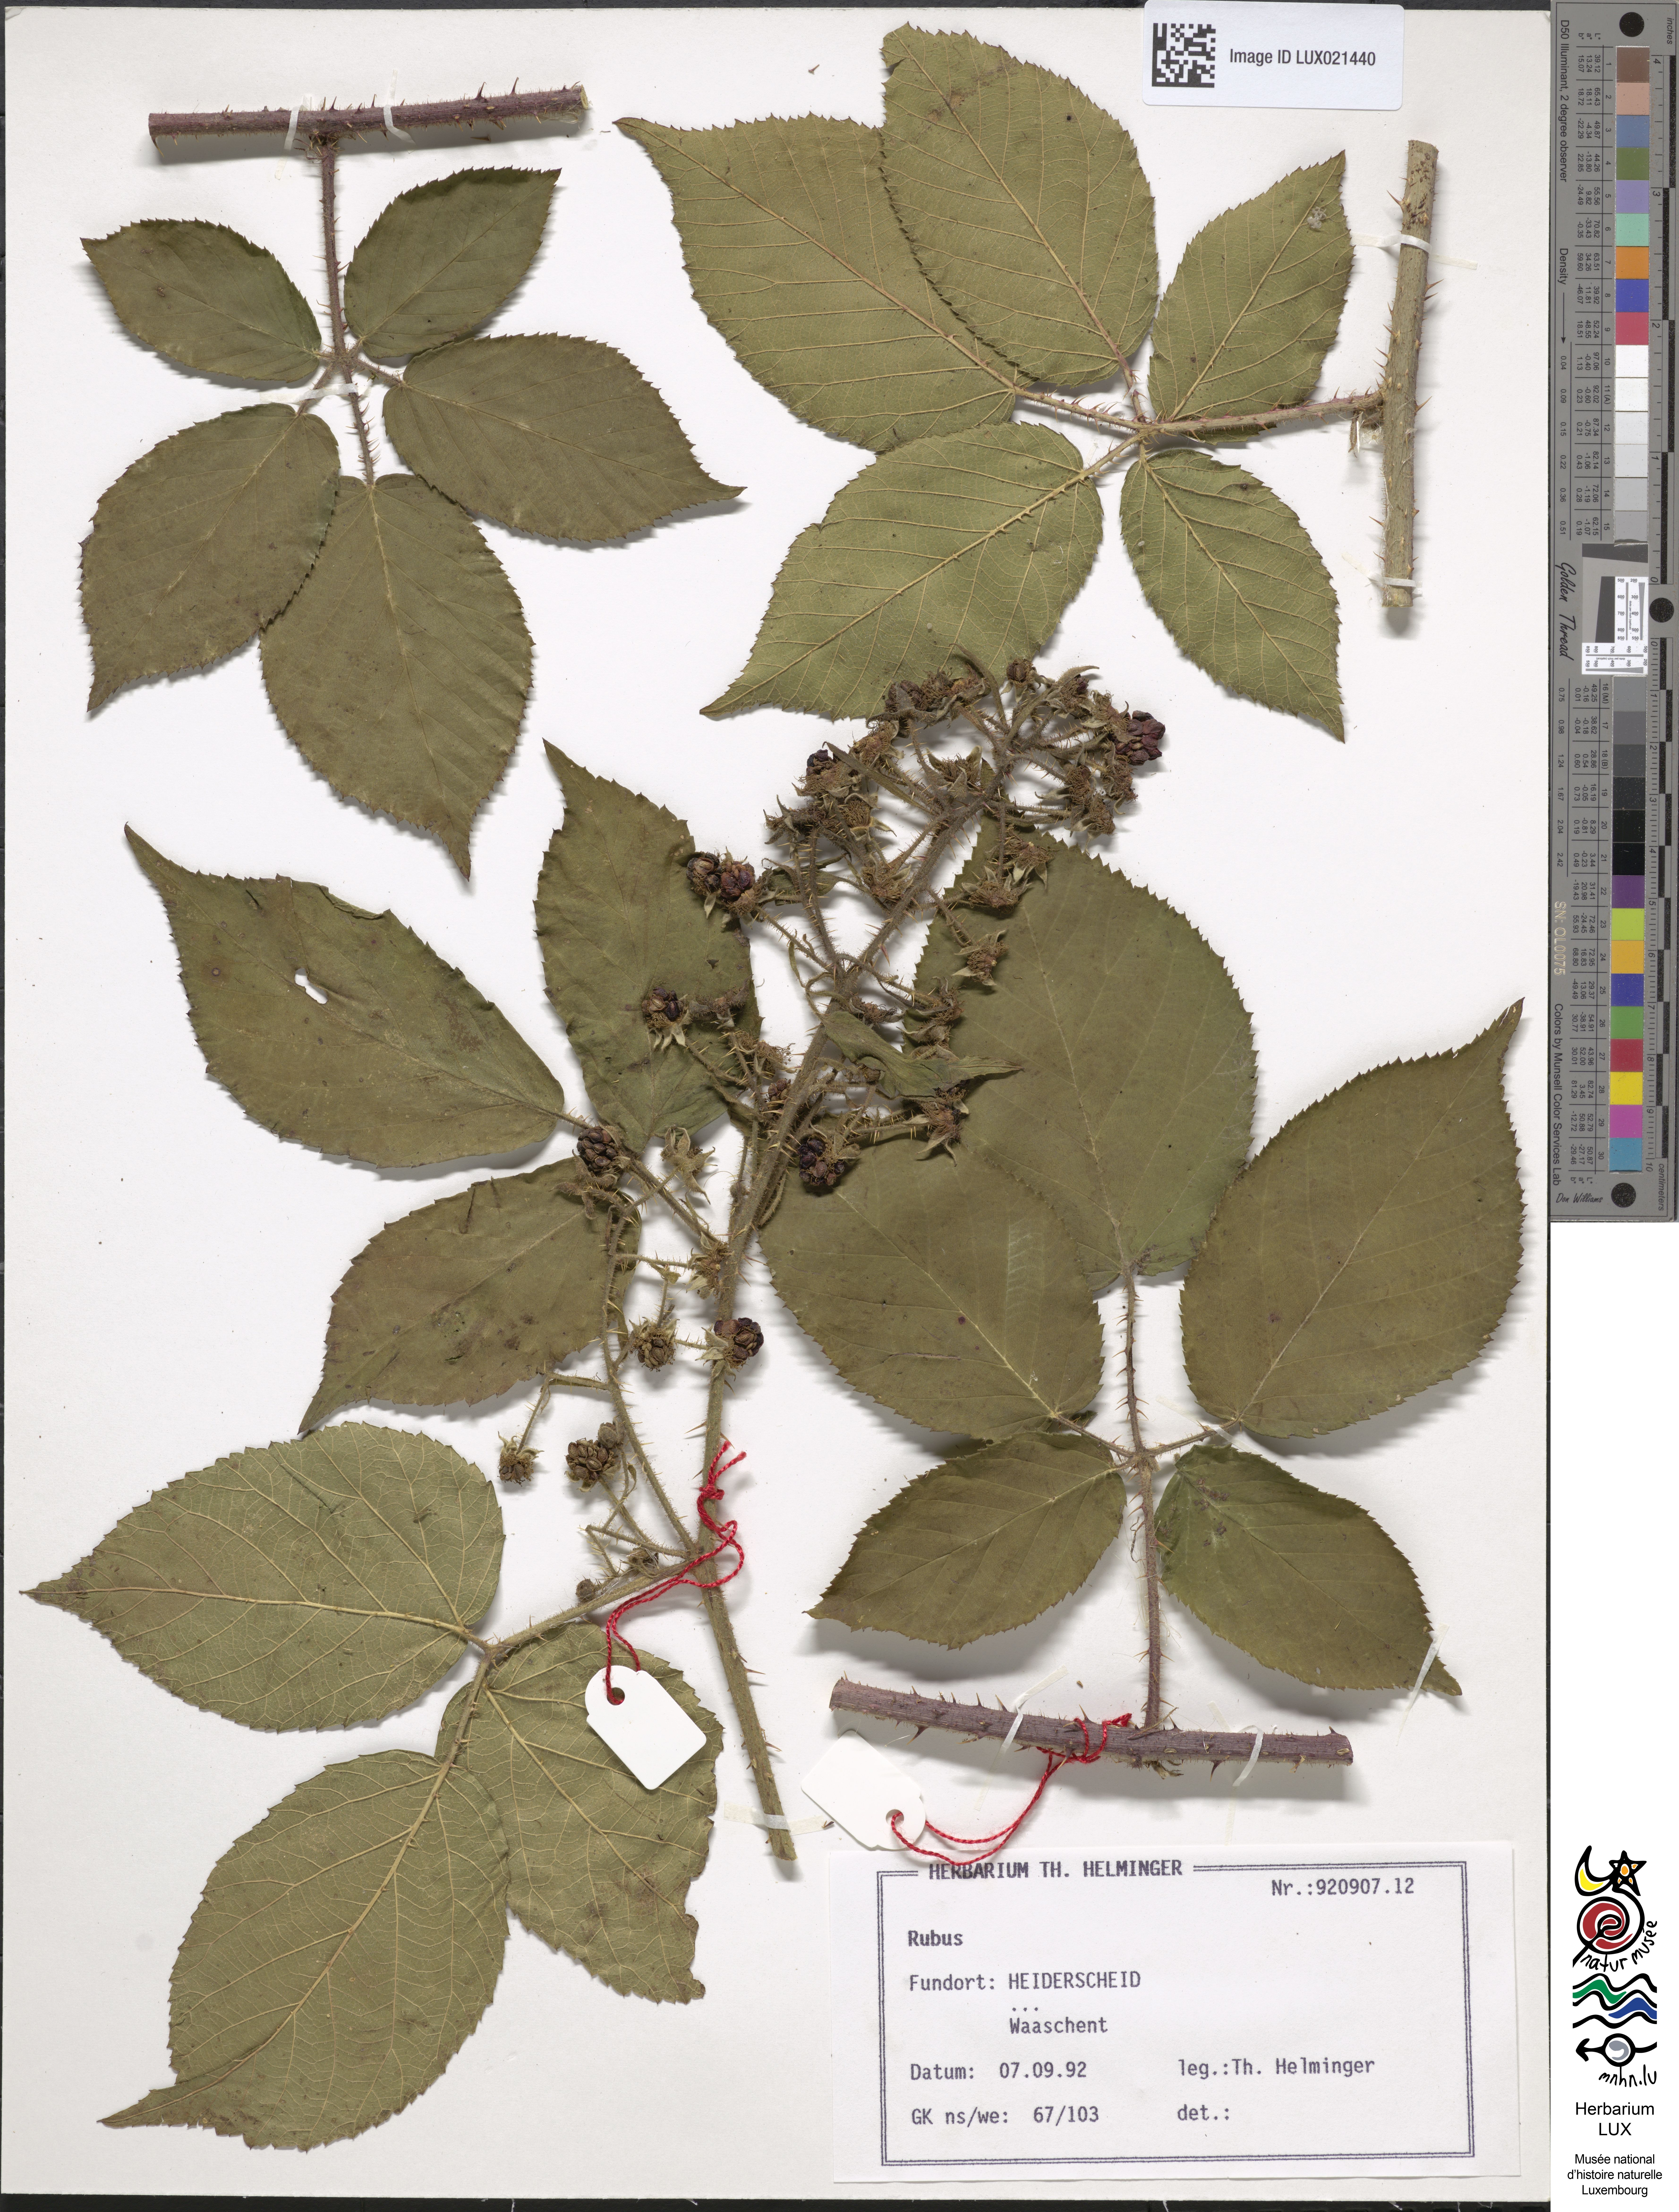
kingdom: Plantae
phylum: Tracheophyta
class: Magnoliopsida
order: Rosales
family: Rosaceae
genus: Rubus
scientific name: Rubus
